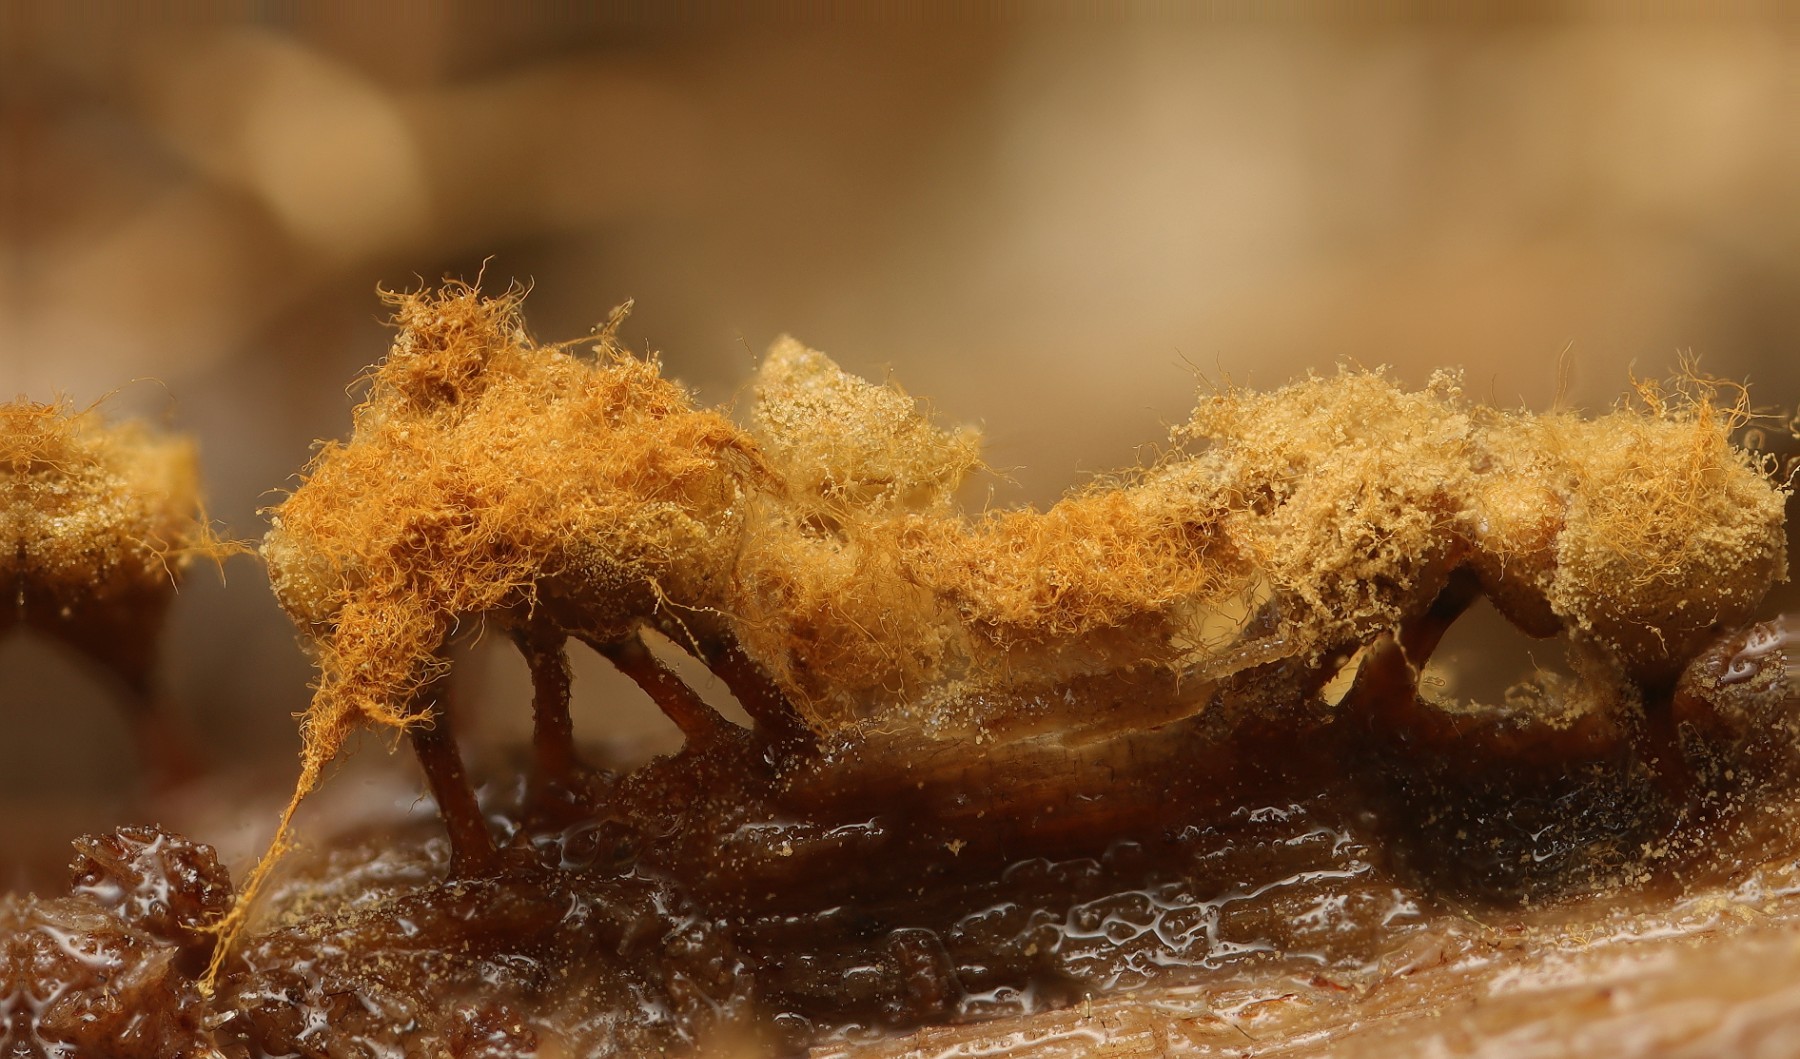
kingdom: Protozoa
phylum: Mycetozoa
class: Myxomycetes
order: Trichiales
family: Trichiaceae
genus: Trichia
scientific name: Trichia crateriformis
